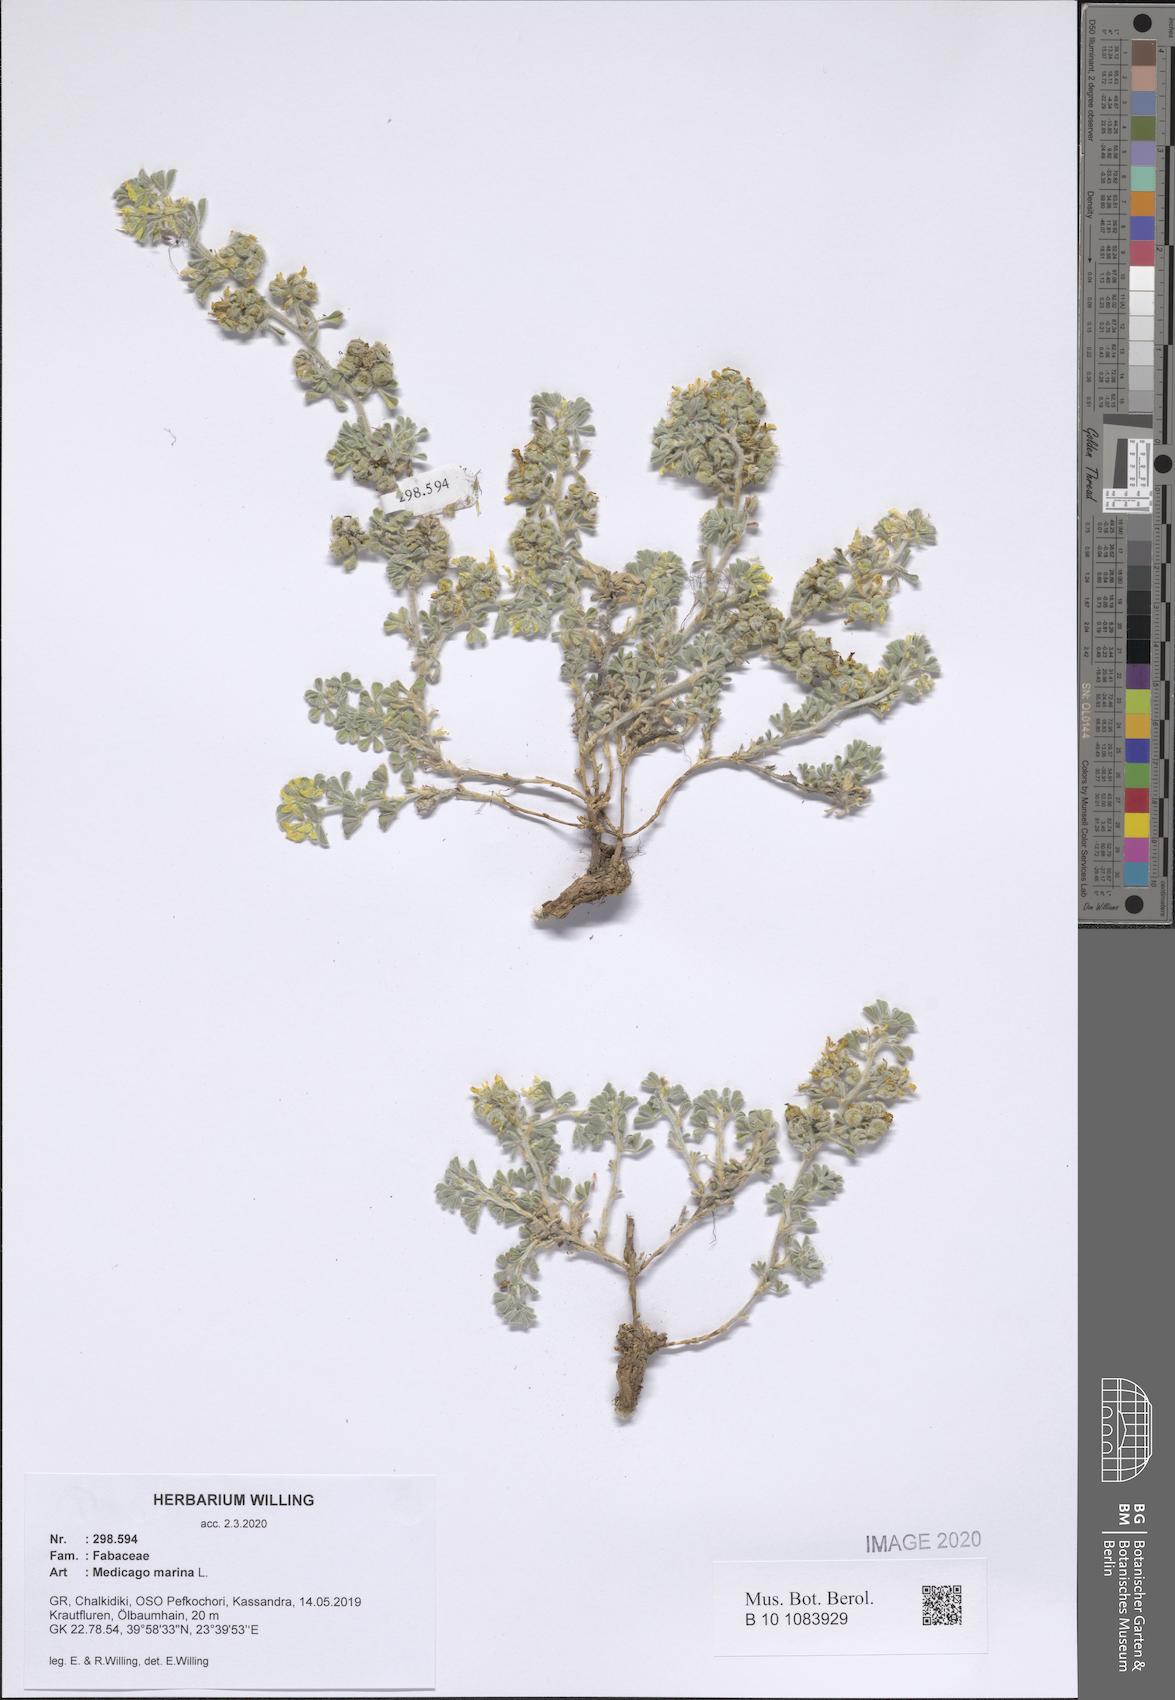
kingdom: Plantae
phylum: Tracheophyta
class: Magnoliopsida
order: Fabales
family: Fabaceae
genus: Medicago
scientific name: Medicago marina
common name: Sea medick
